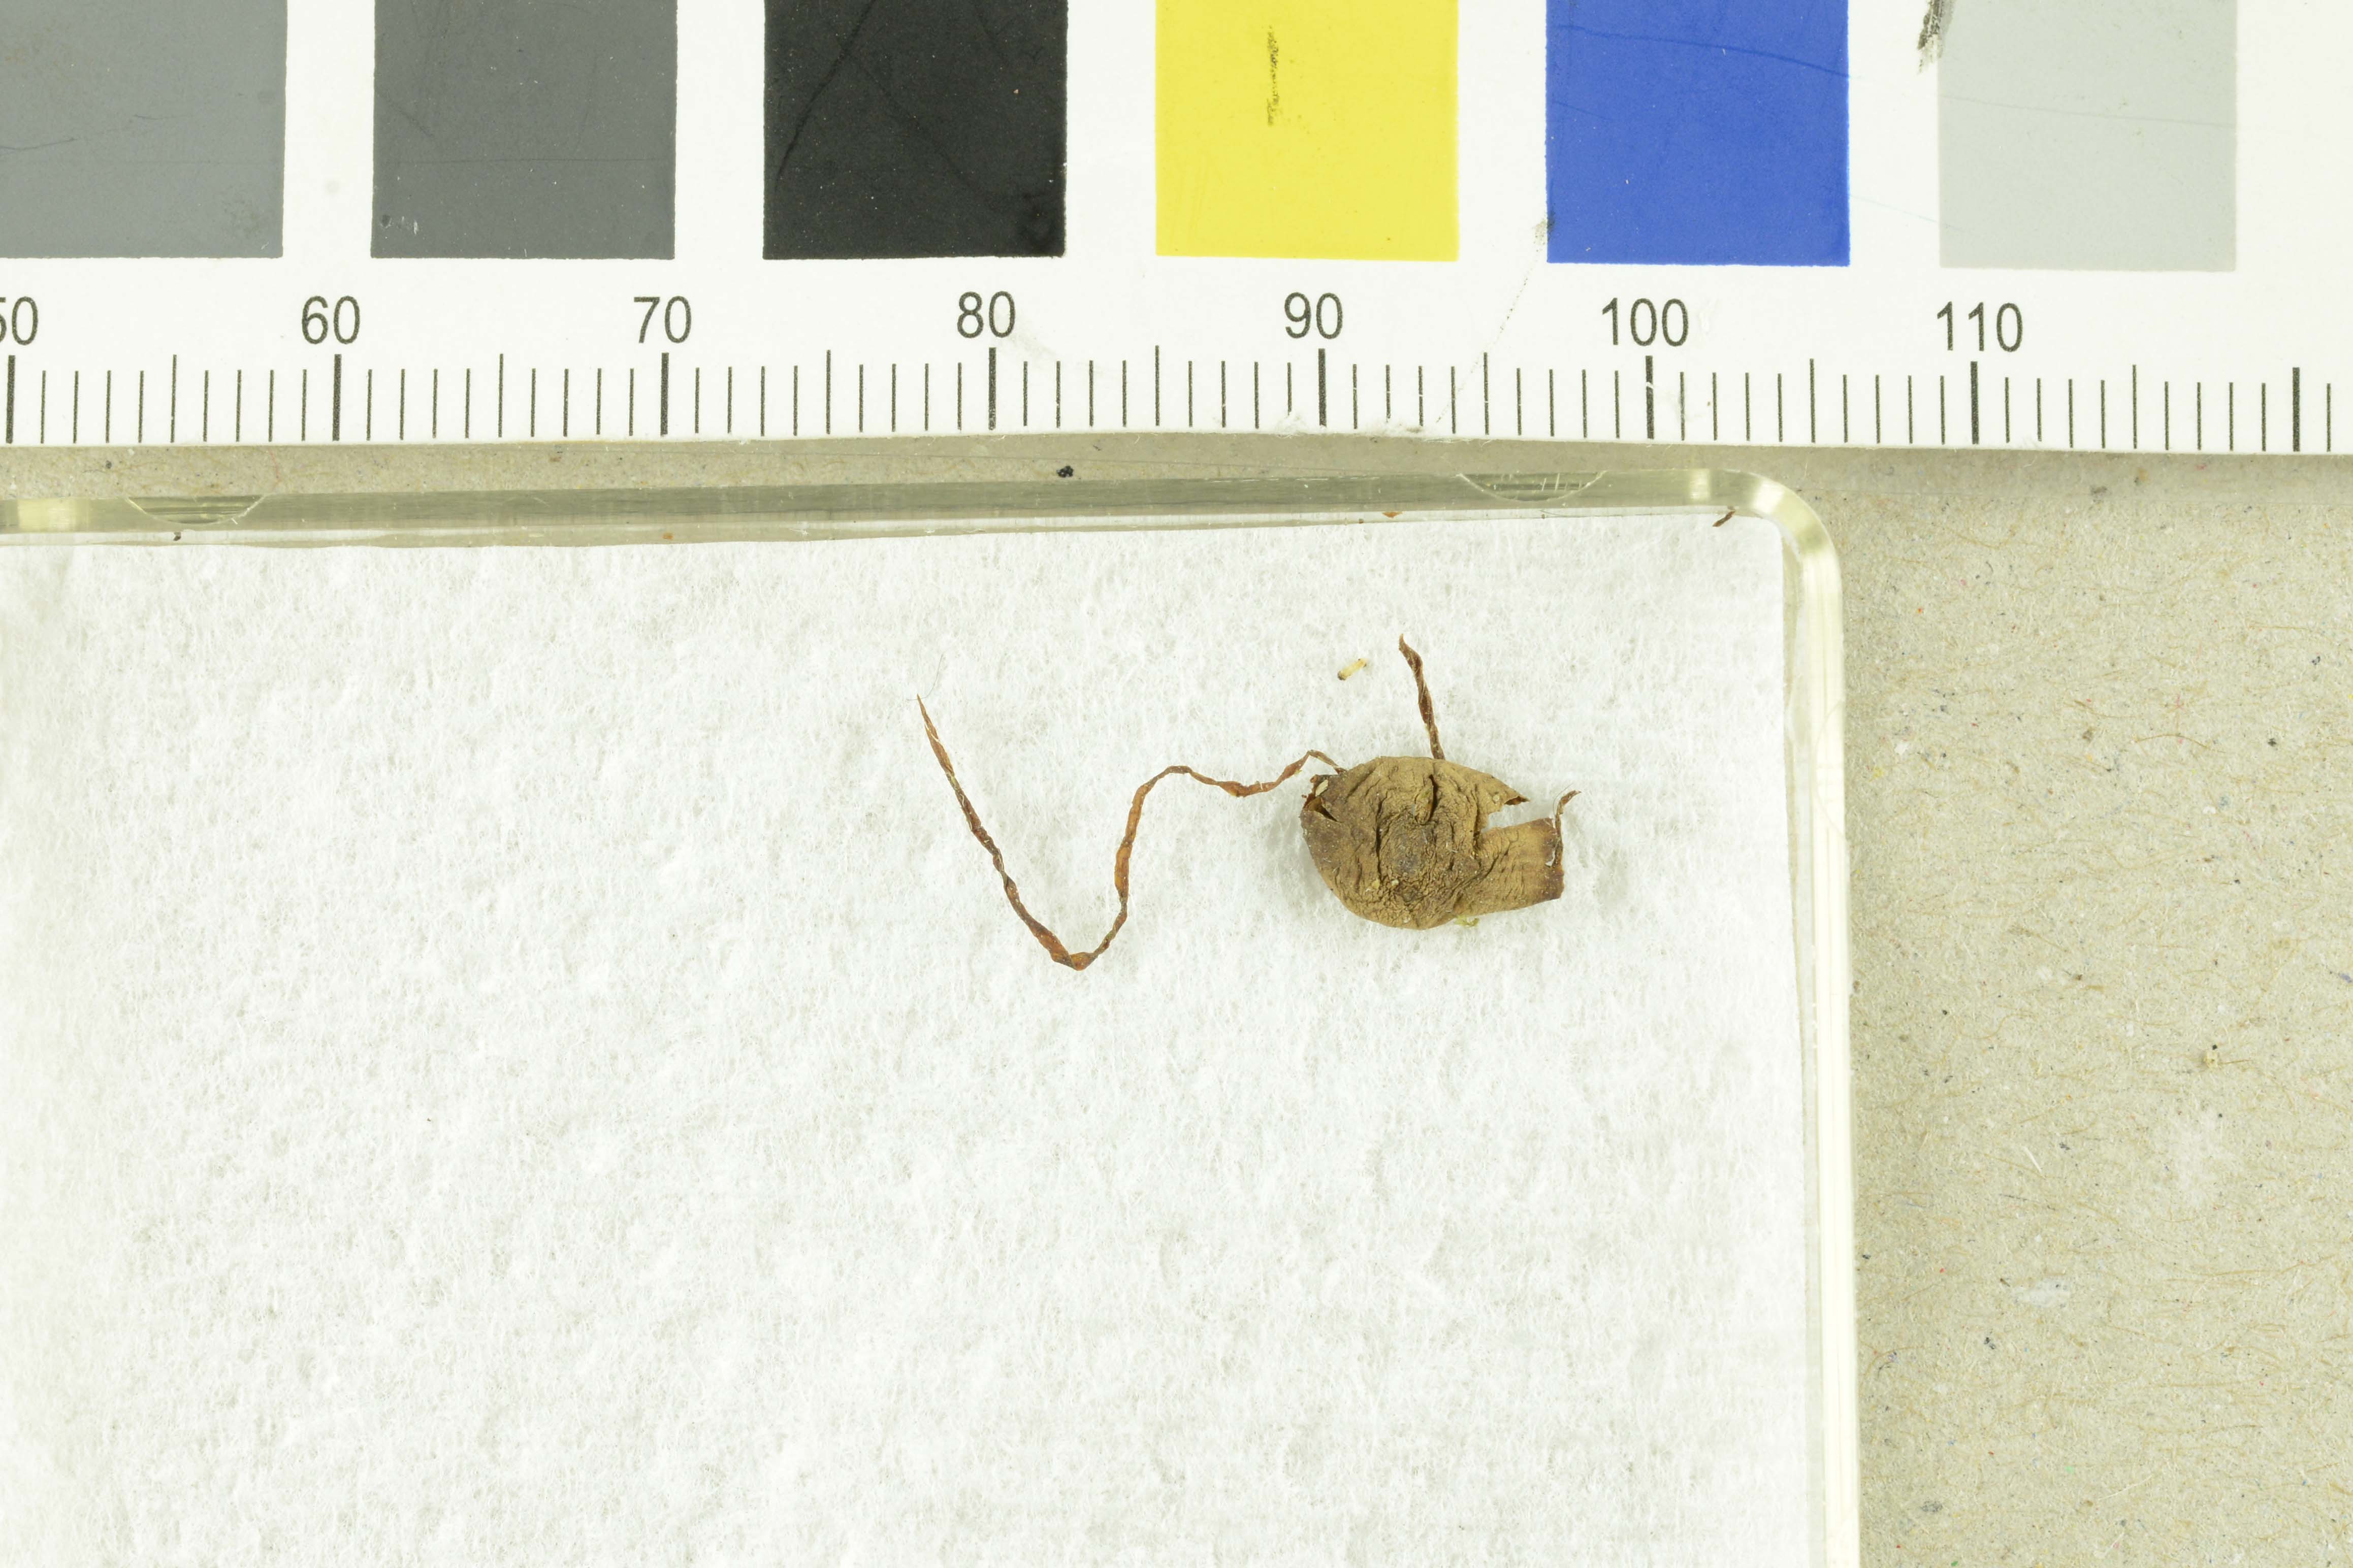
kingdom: Fungi
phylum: Basidiomycota
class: Agaricomycetes
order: Agaricales
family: Bolbitiaceae
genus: Conocybe
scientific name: Conocybe siliginea
